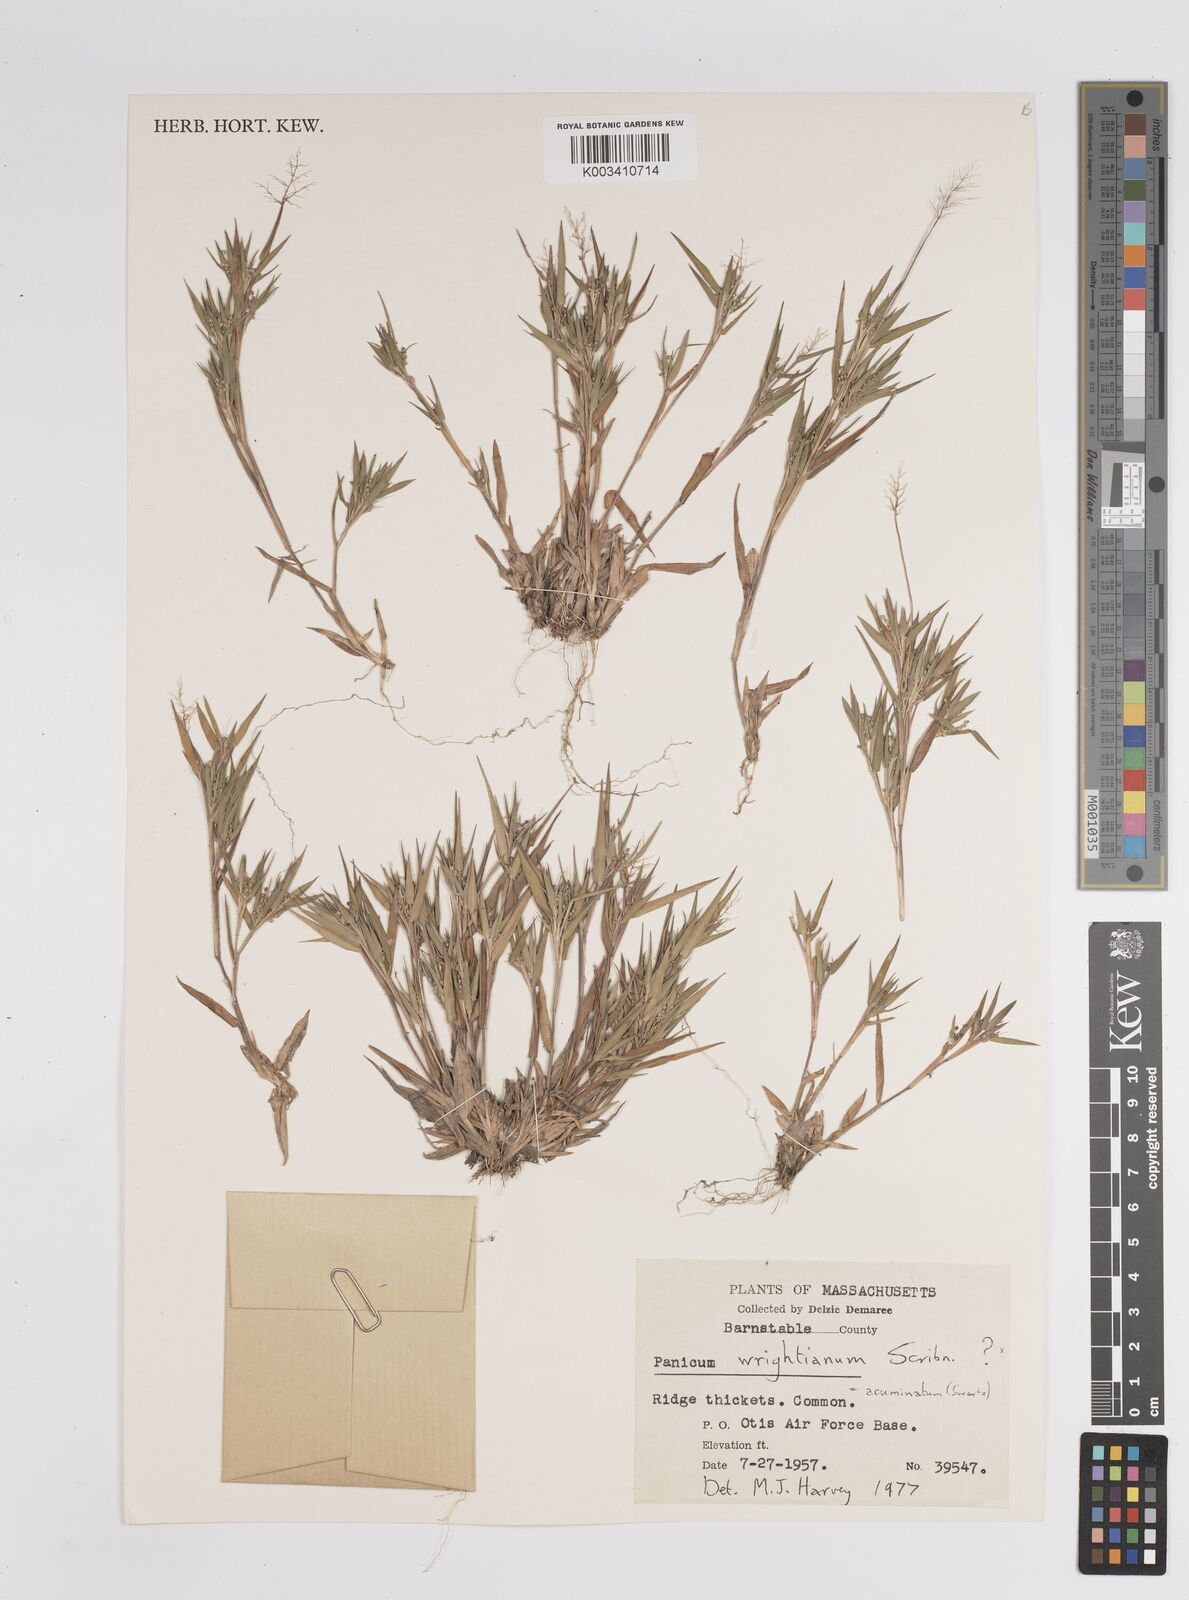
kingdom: Plantae
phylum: Tracheophyta
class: Liliopsida
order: Poales
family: Poaceae
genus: Dichanthelium
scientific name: Dichanthelium wrightianum
